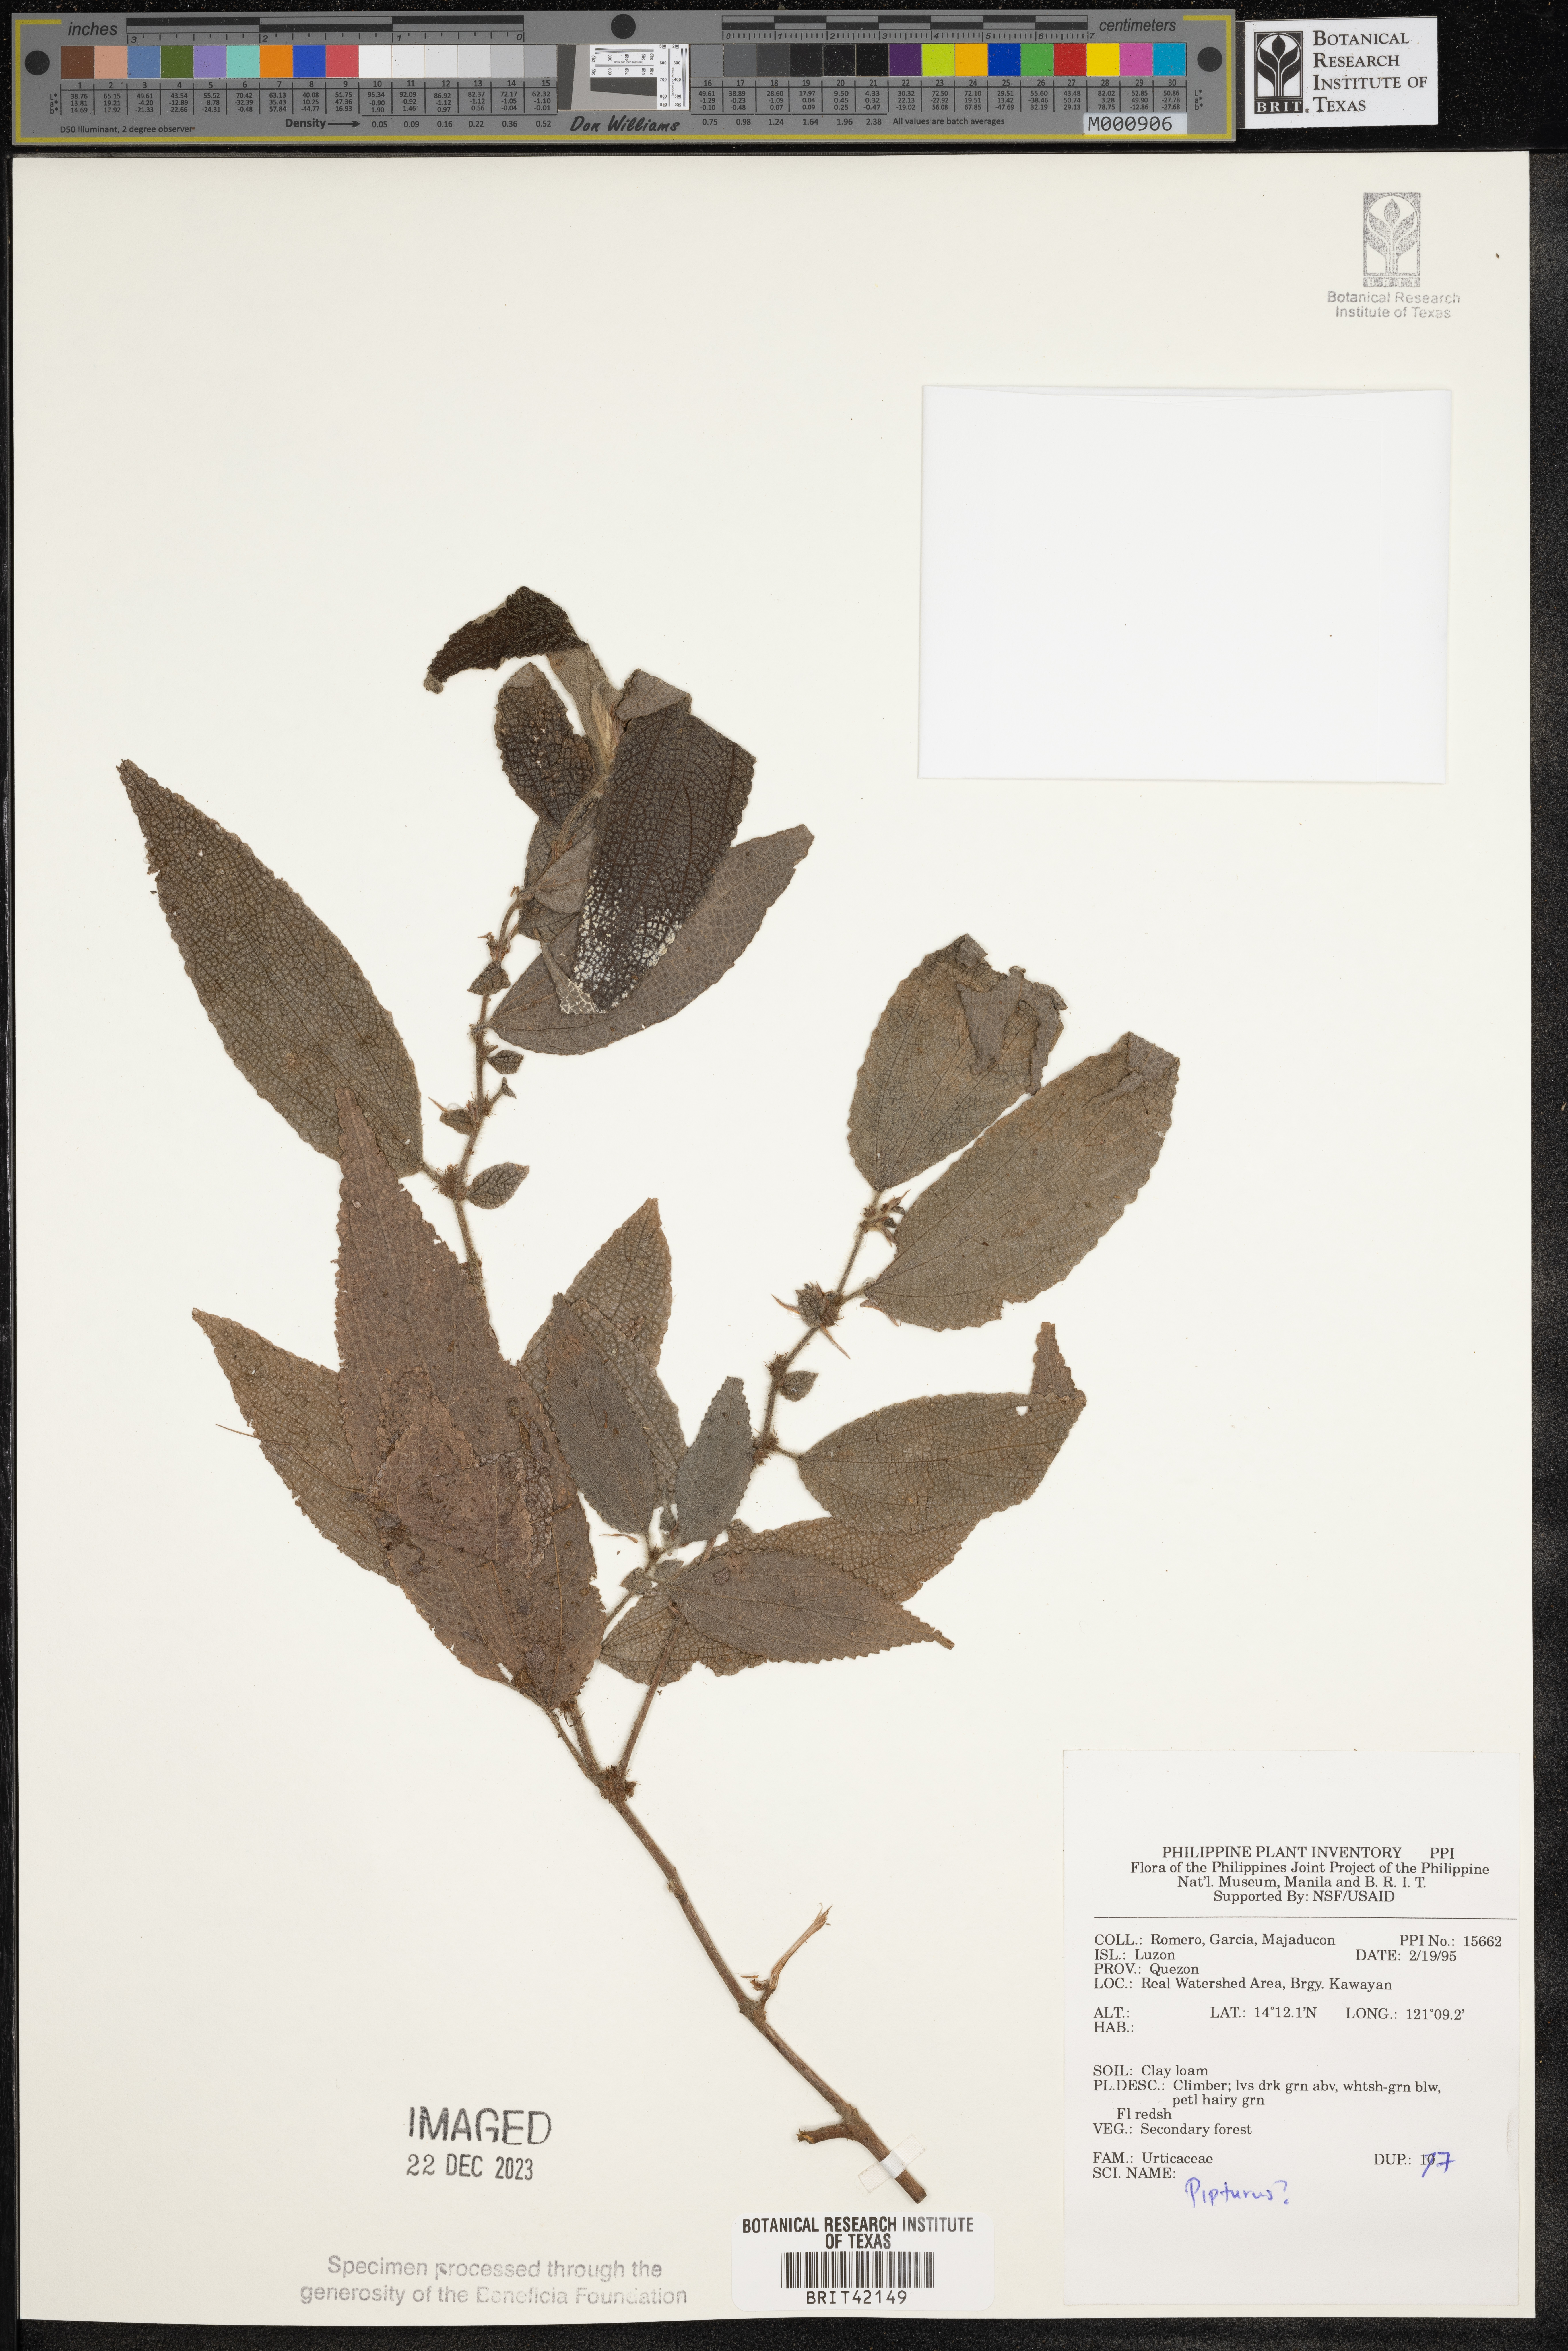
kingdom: Plantae
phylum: Tracheophyta
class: Magnoliopsida
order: Rosales
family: Urticaceae
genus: Pipturus
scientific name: Pipturus
